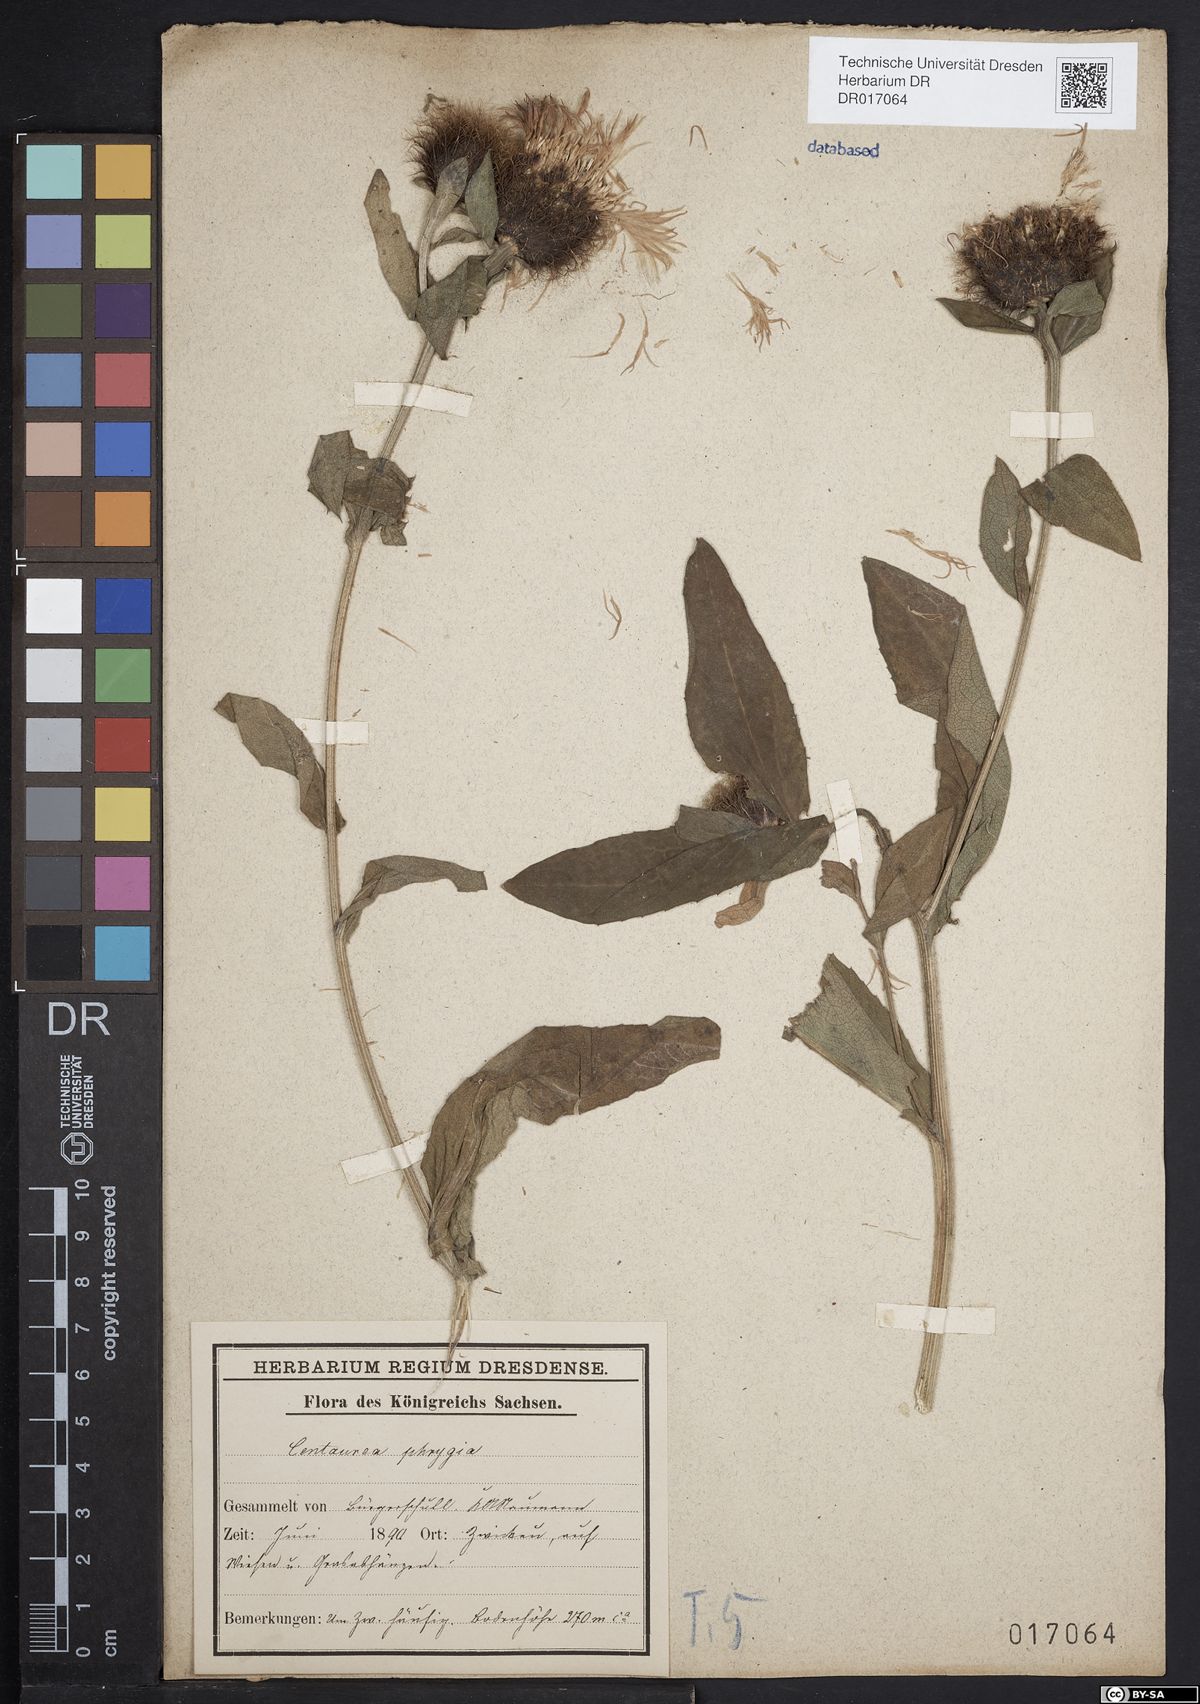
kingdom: Plantae
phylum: Tracheophyta
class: Magnoliopsida
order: Asterales
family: Asteraceae
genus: Centaurea
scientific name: Centaurea pseudophrygia
